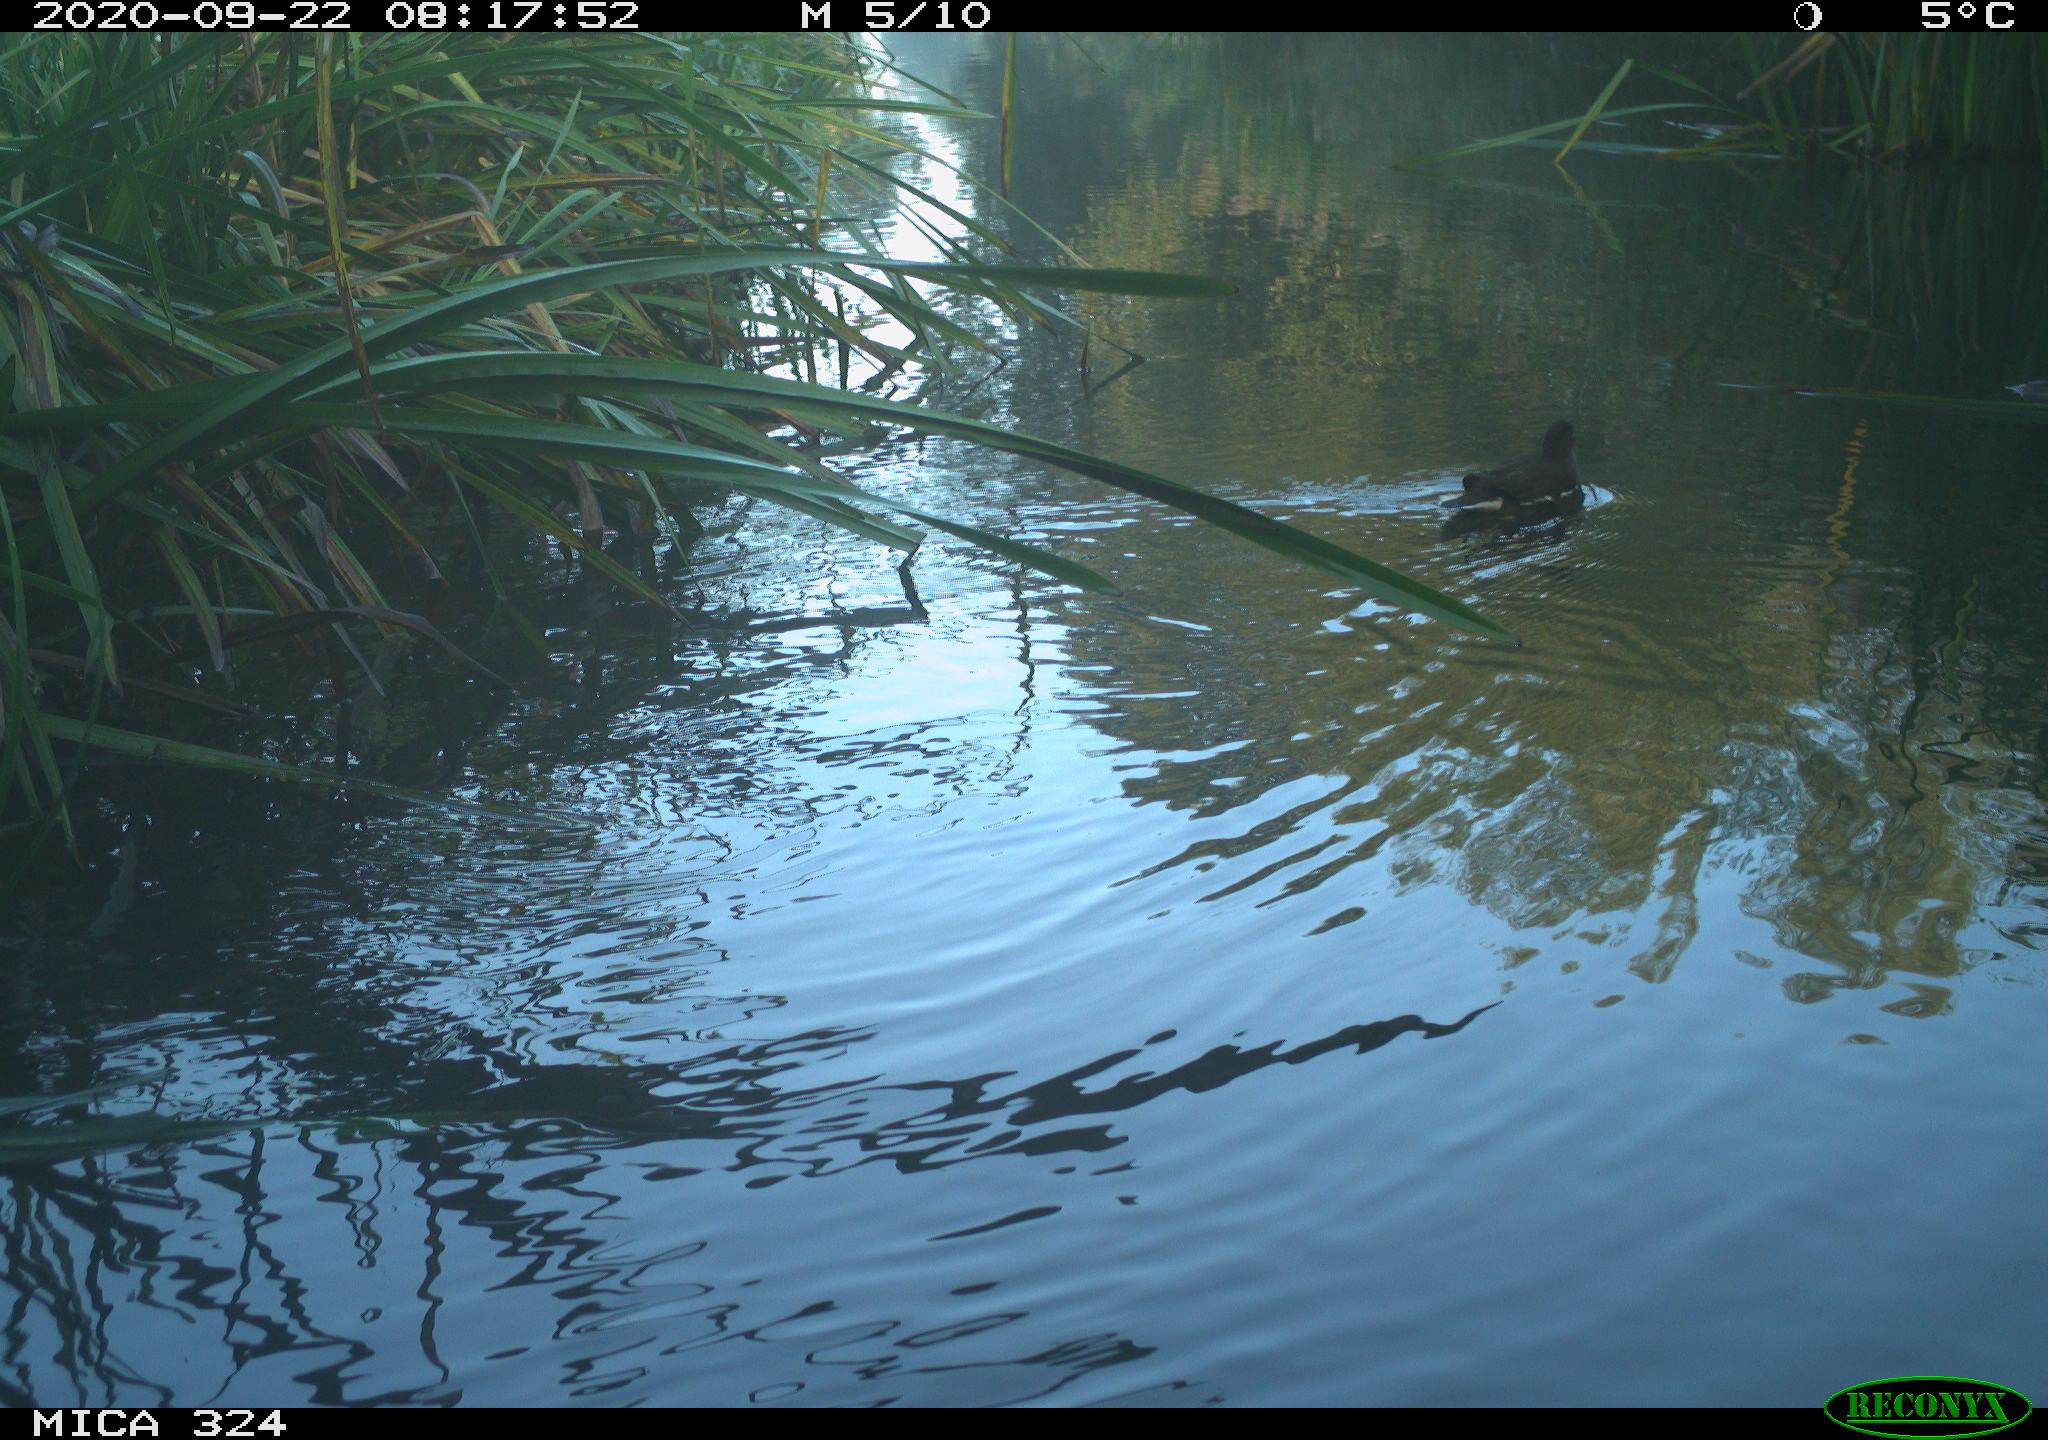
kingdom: Animalia
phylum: Chordata
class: Aves
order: Gruiformes
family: Rallidae
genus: Gallinula
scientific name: Gallinula chloropus
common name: Common moorhen
